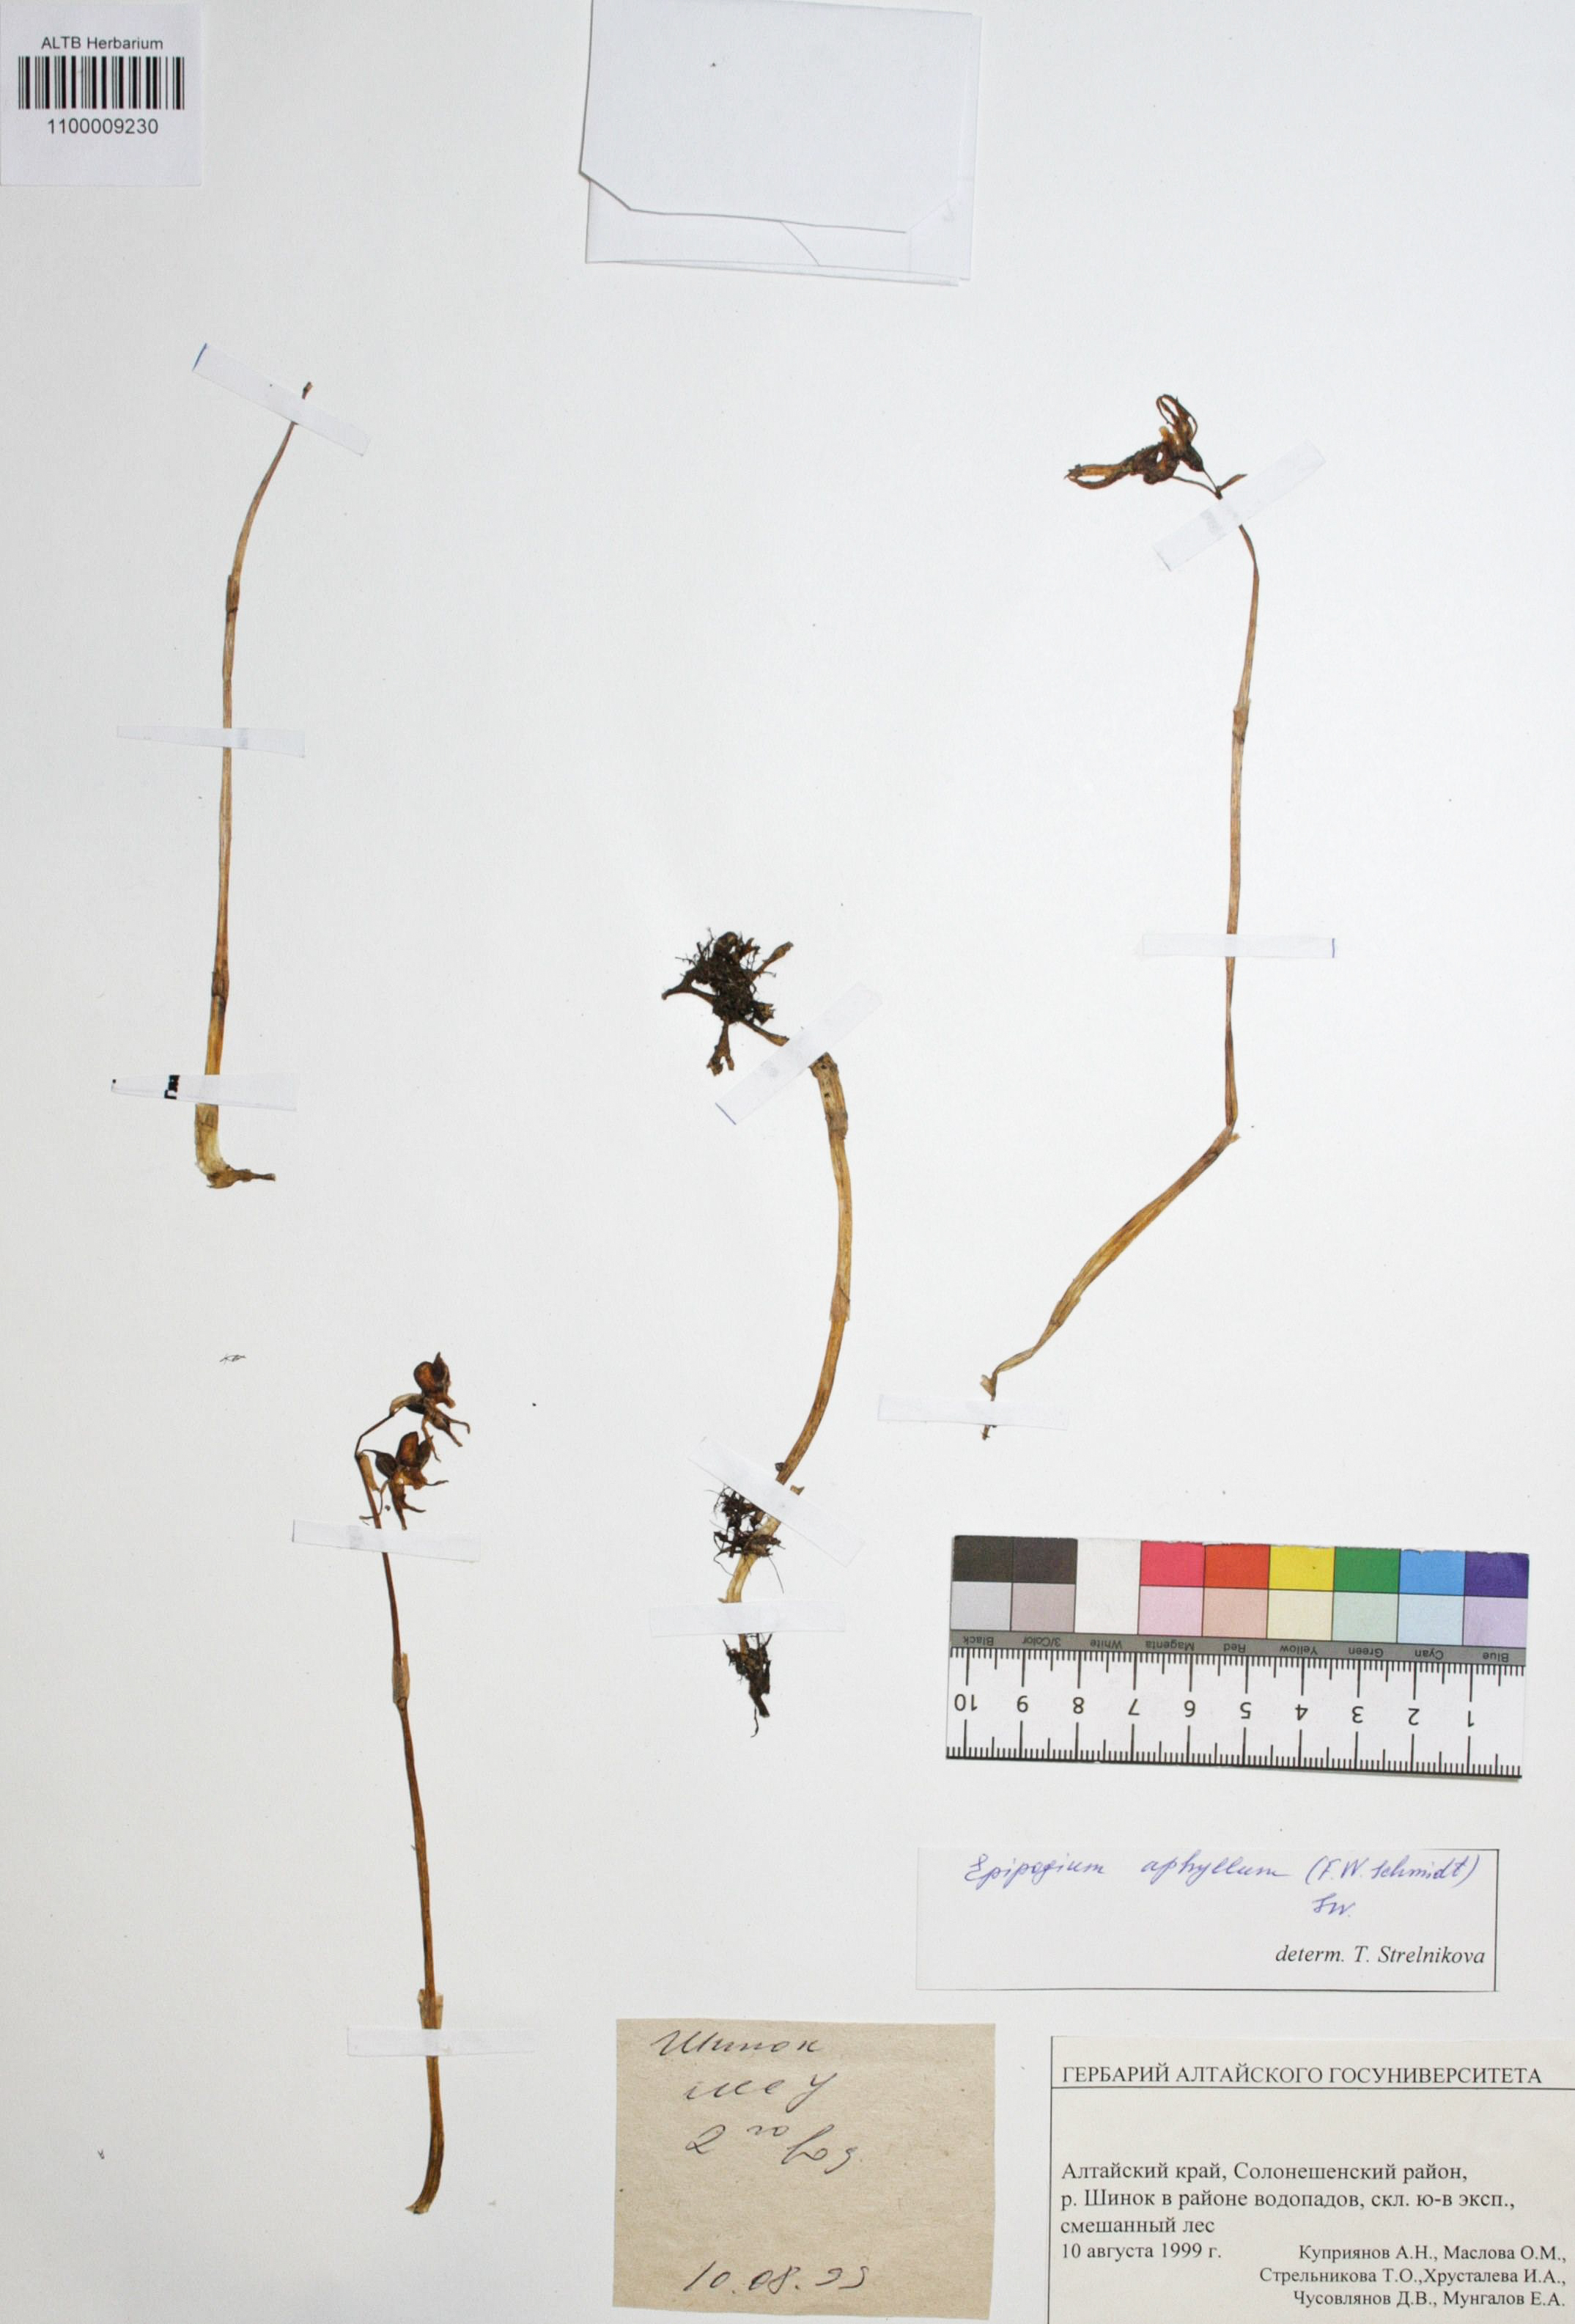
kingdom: Plantae
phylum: Tracheophyta
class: Liliopsida
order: Asparagales
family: Orchidaceae
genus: Epipogium
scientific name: Epipogium aphyllum
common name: Ghost orchid
